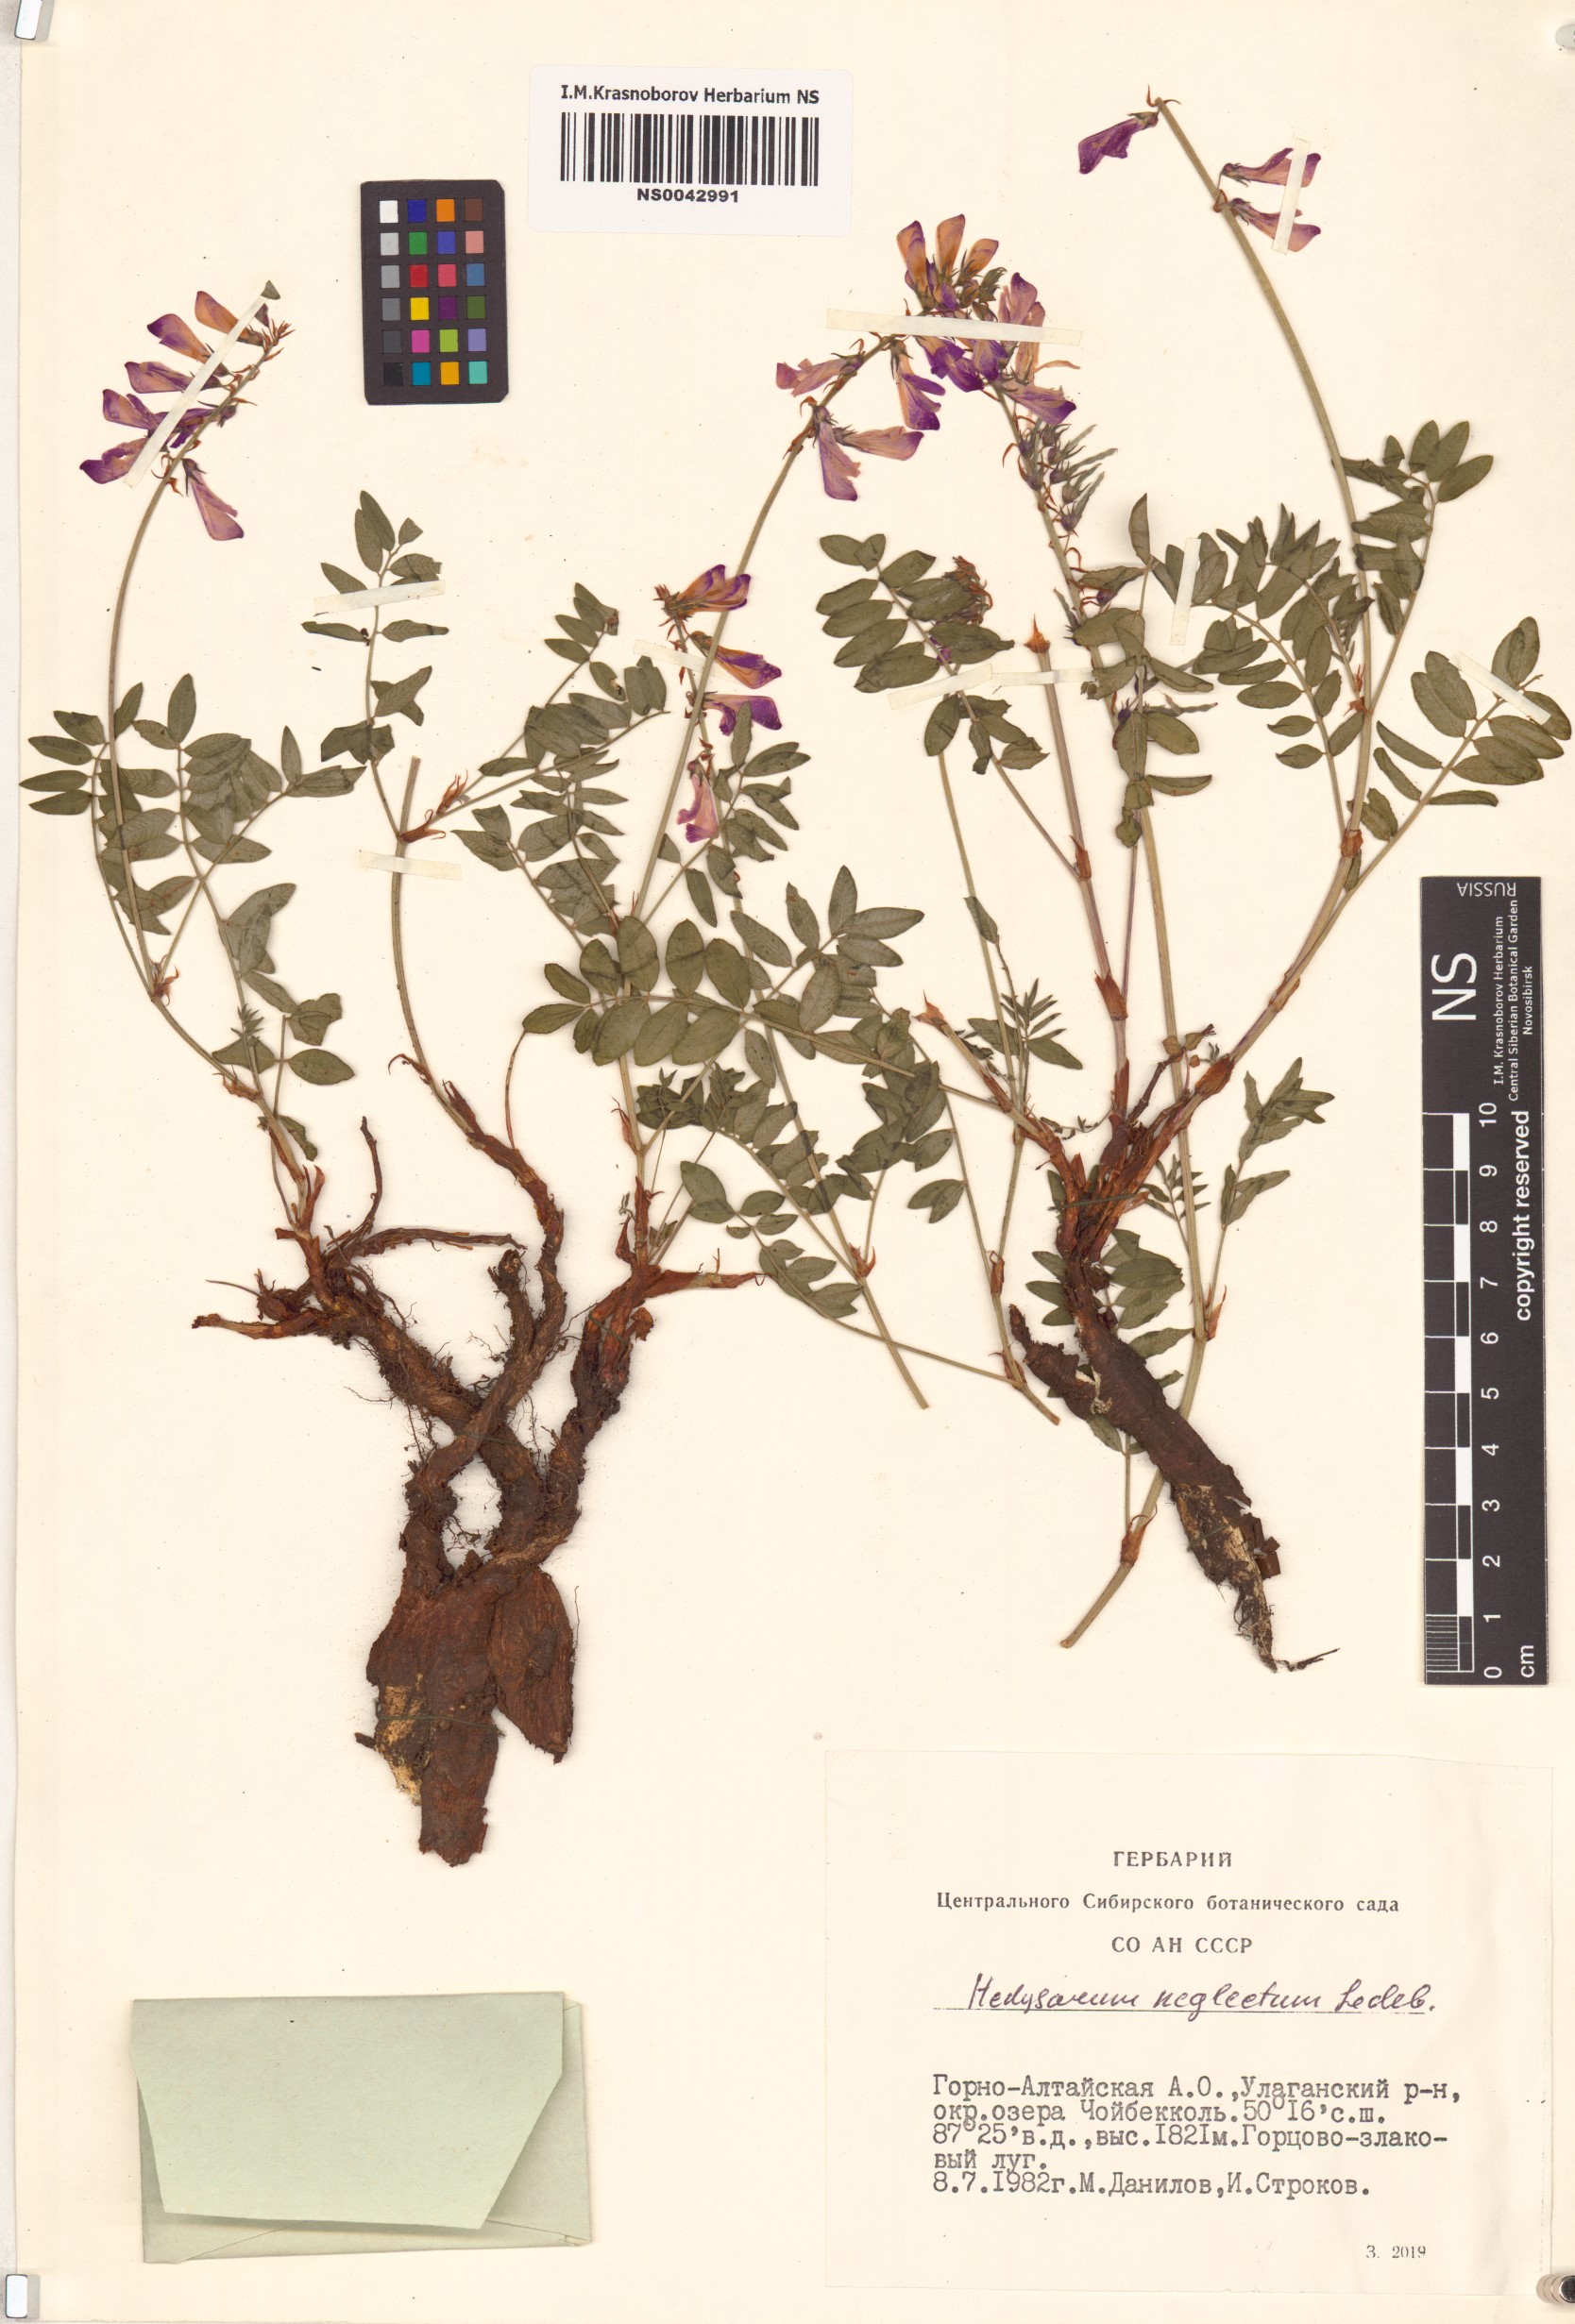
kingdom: Plantae
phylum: Tracheophyta
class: Magnoliopsida
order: Fabales
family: Fabaceae
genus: Hedysarum
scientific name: Hedysarum neglectum
